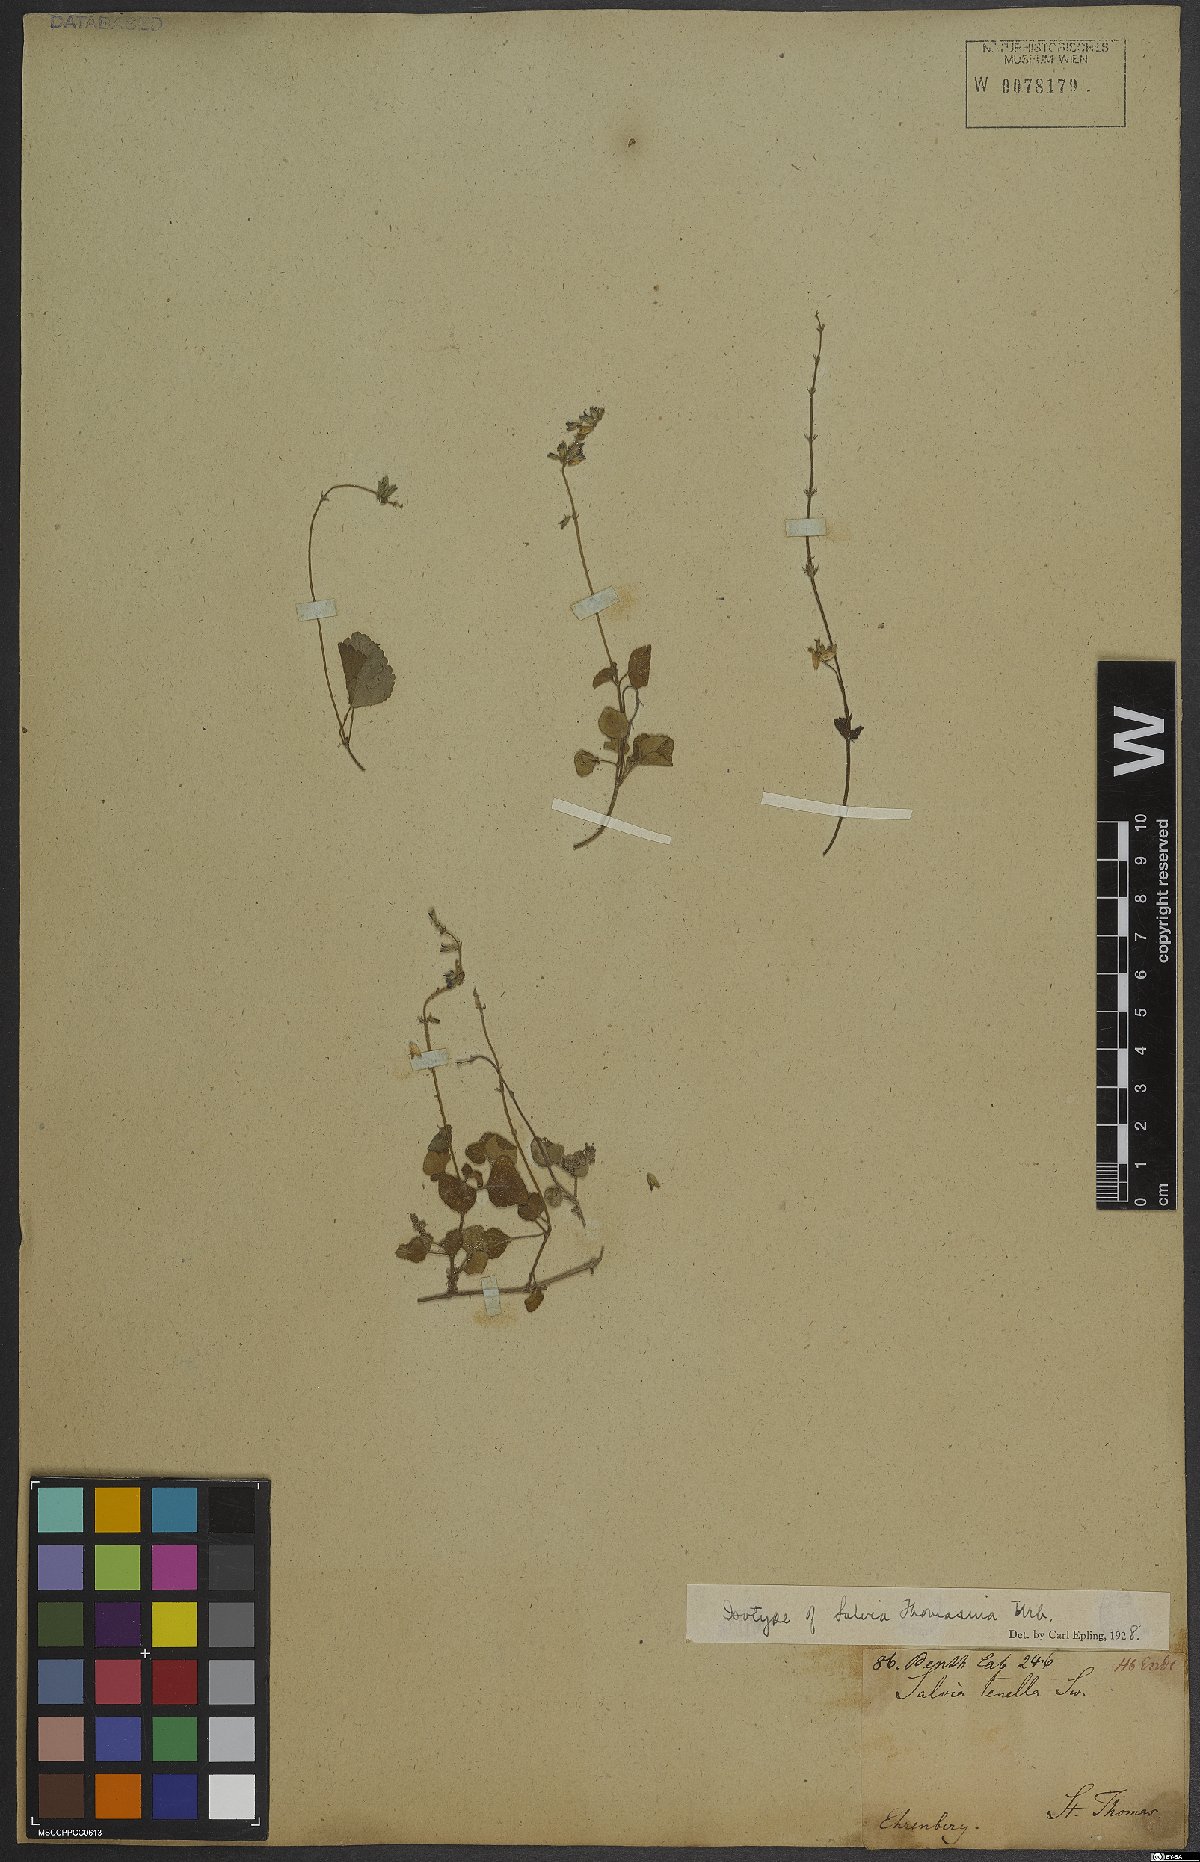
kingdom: Plantae
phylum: Tracheophyta
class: Magnoliopsida
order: Lamiales
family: Lamiaceae
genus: Salvia
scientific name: Salvia
